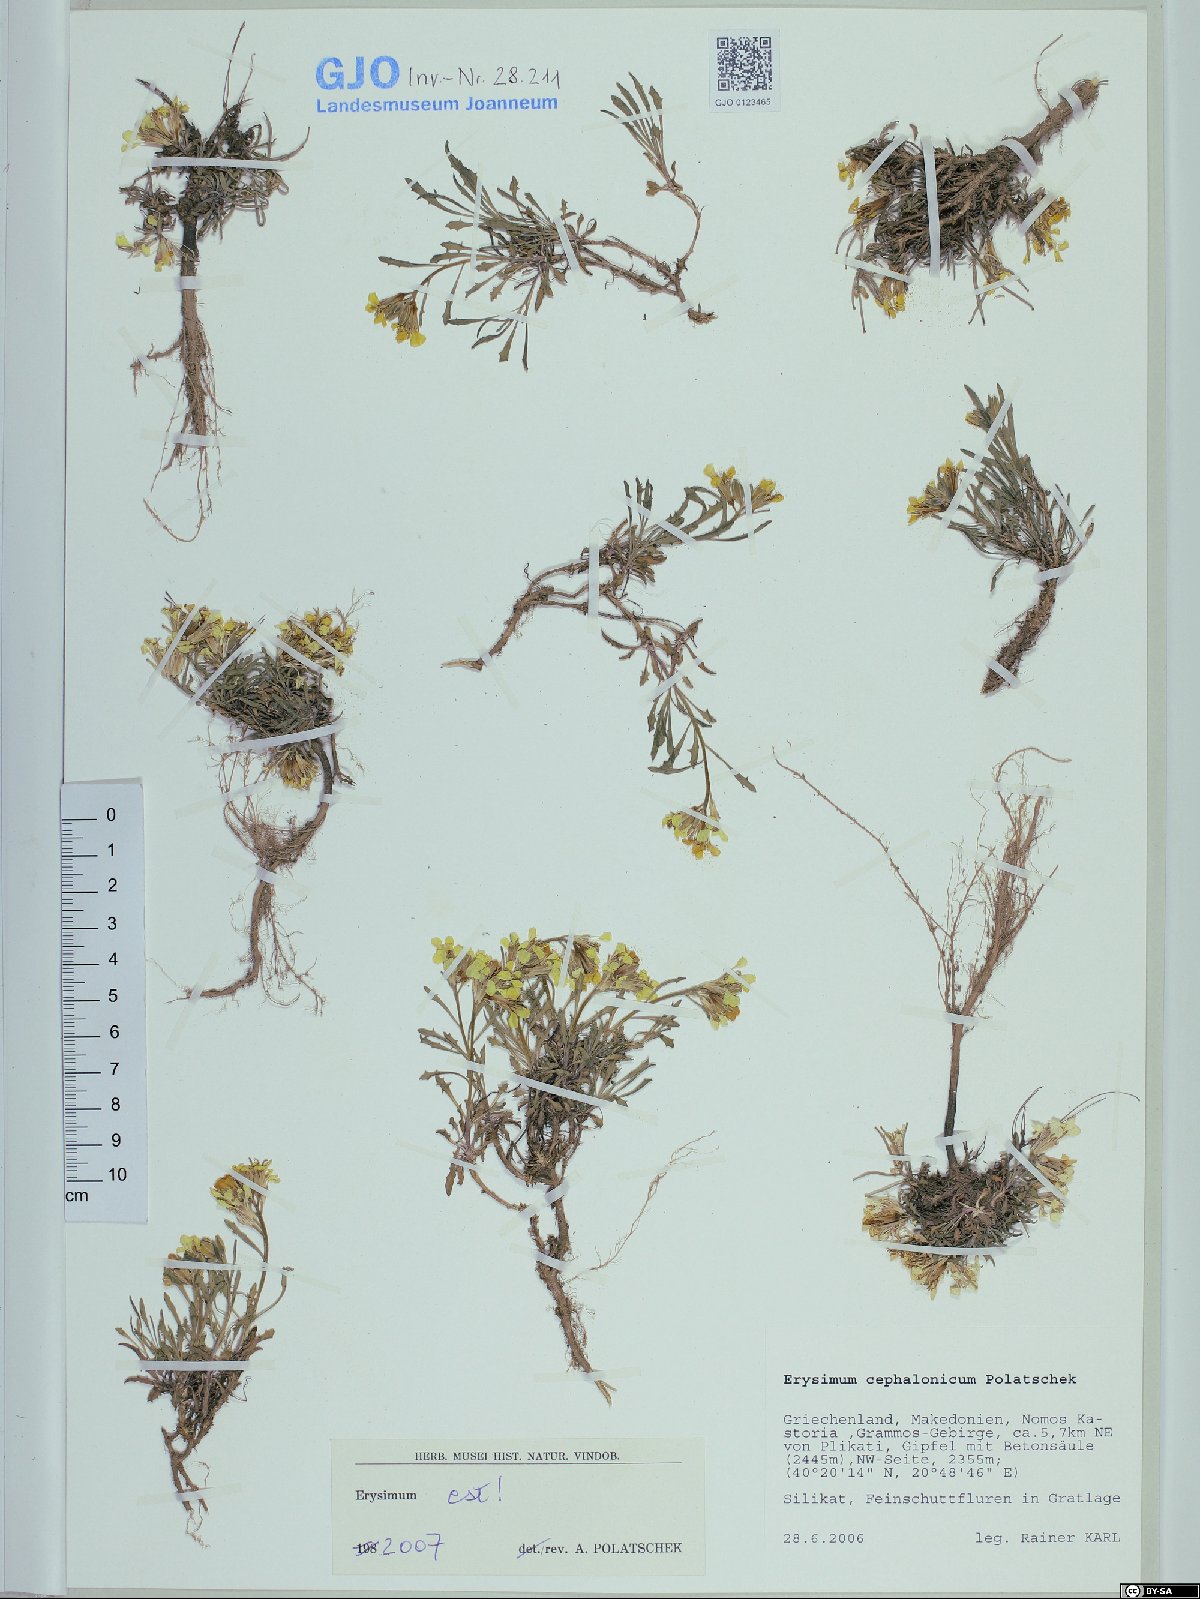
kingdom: Plantae
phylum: Tracheophyta
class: Magnoliopsida
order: Brassicales
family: Brassicaceae
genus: Erysimum
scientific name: Erysimum pusillum
